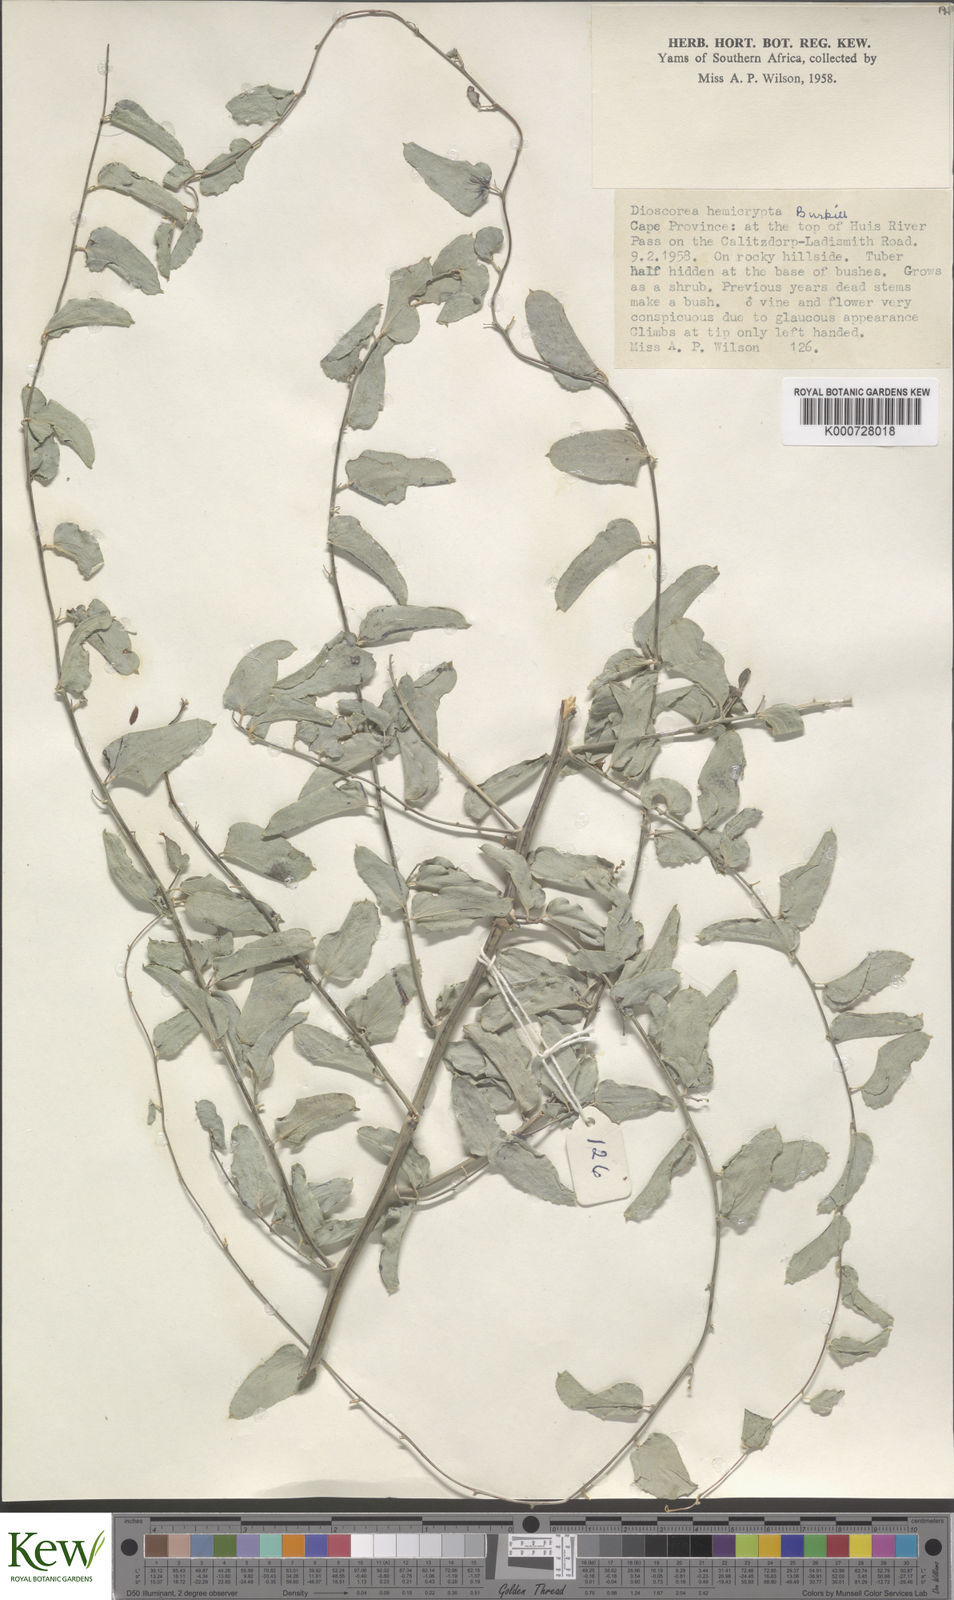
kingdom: Plantae
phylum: Tracheophyta
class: Liliopsida
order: Dioscoreales
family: Dioscoreaceae
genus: Dioscorea
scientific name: Dioscorea hemicrypta
